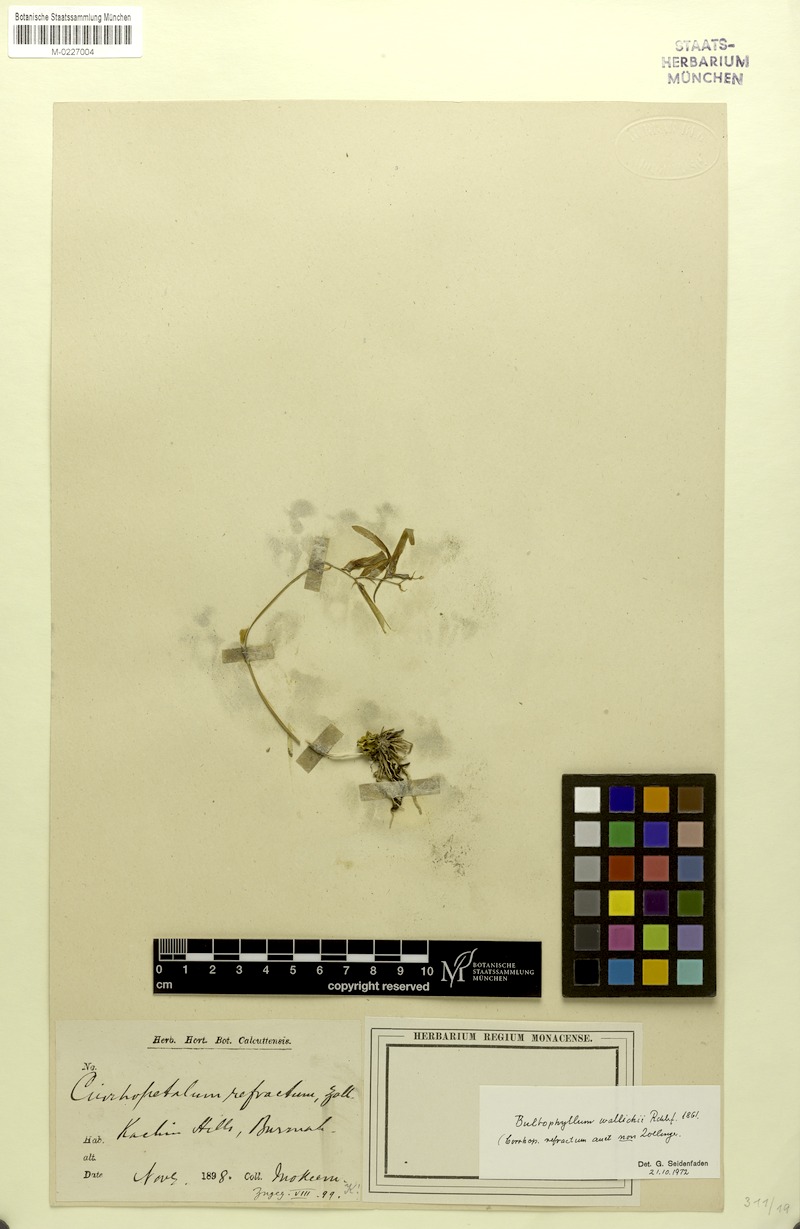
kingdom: Plantae
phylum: Tracheophyta
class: Liliopsida
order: Asparagales
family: Orchidaceae
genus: Bulbophyllum
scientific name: Bulbophyllum wallichii
